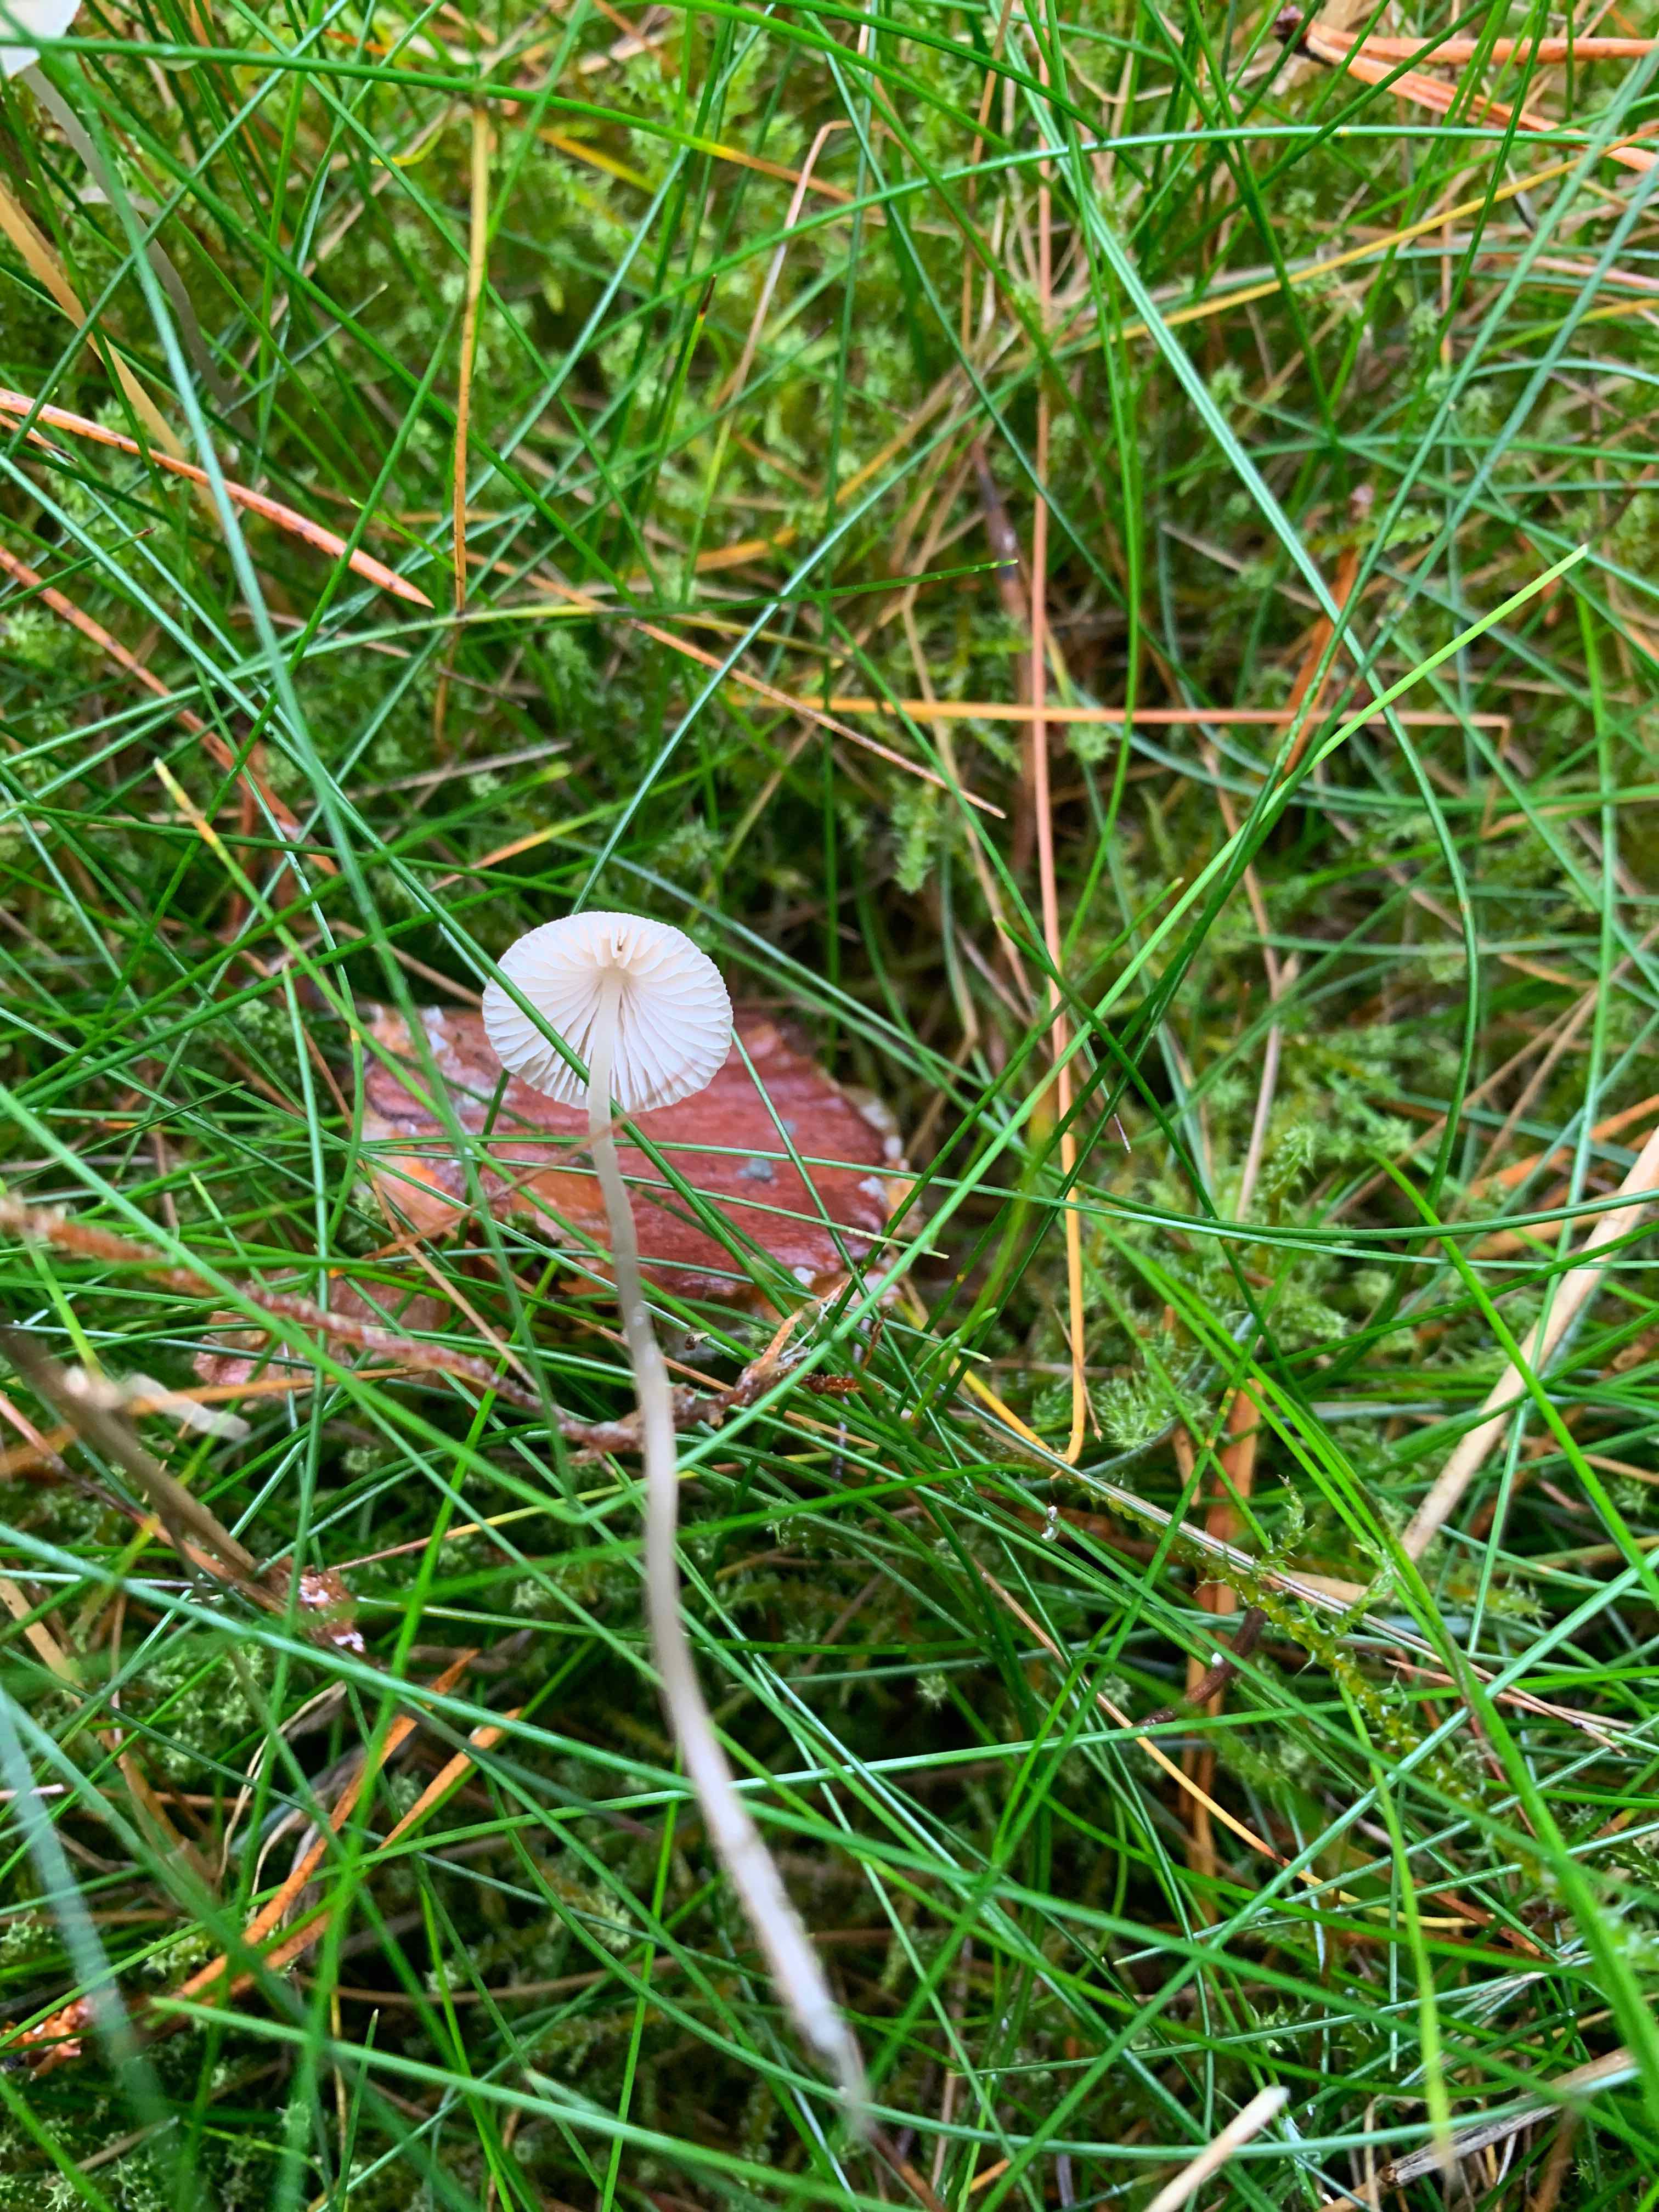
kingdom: Fungi
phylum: Basidiomycota
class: Agaricomycetes
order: Agaricales
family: Mycenaceae
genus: Mycena
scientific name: Mycena
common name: huesvamp
